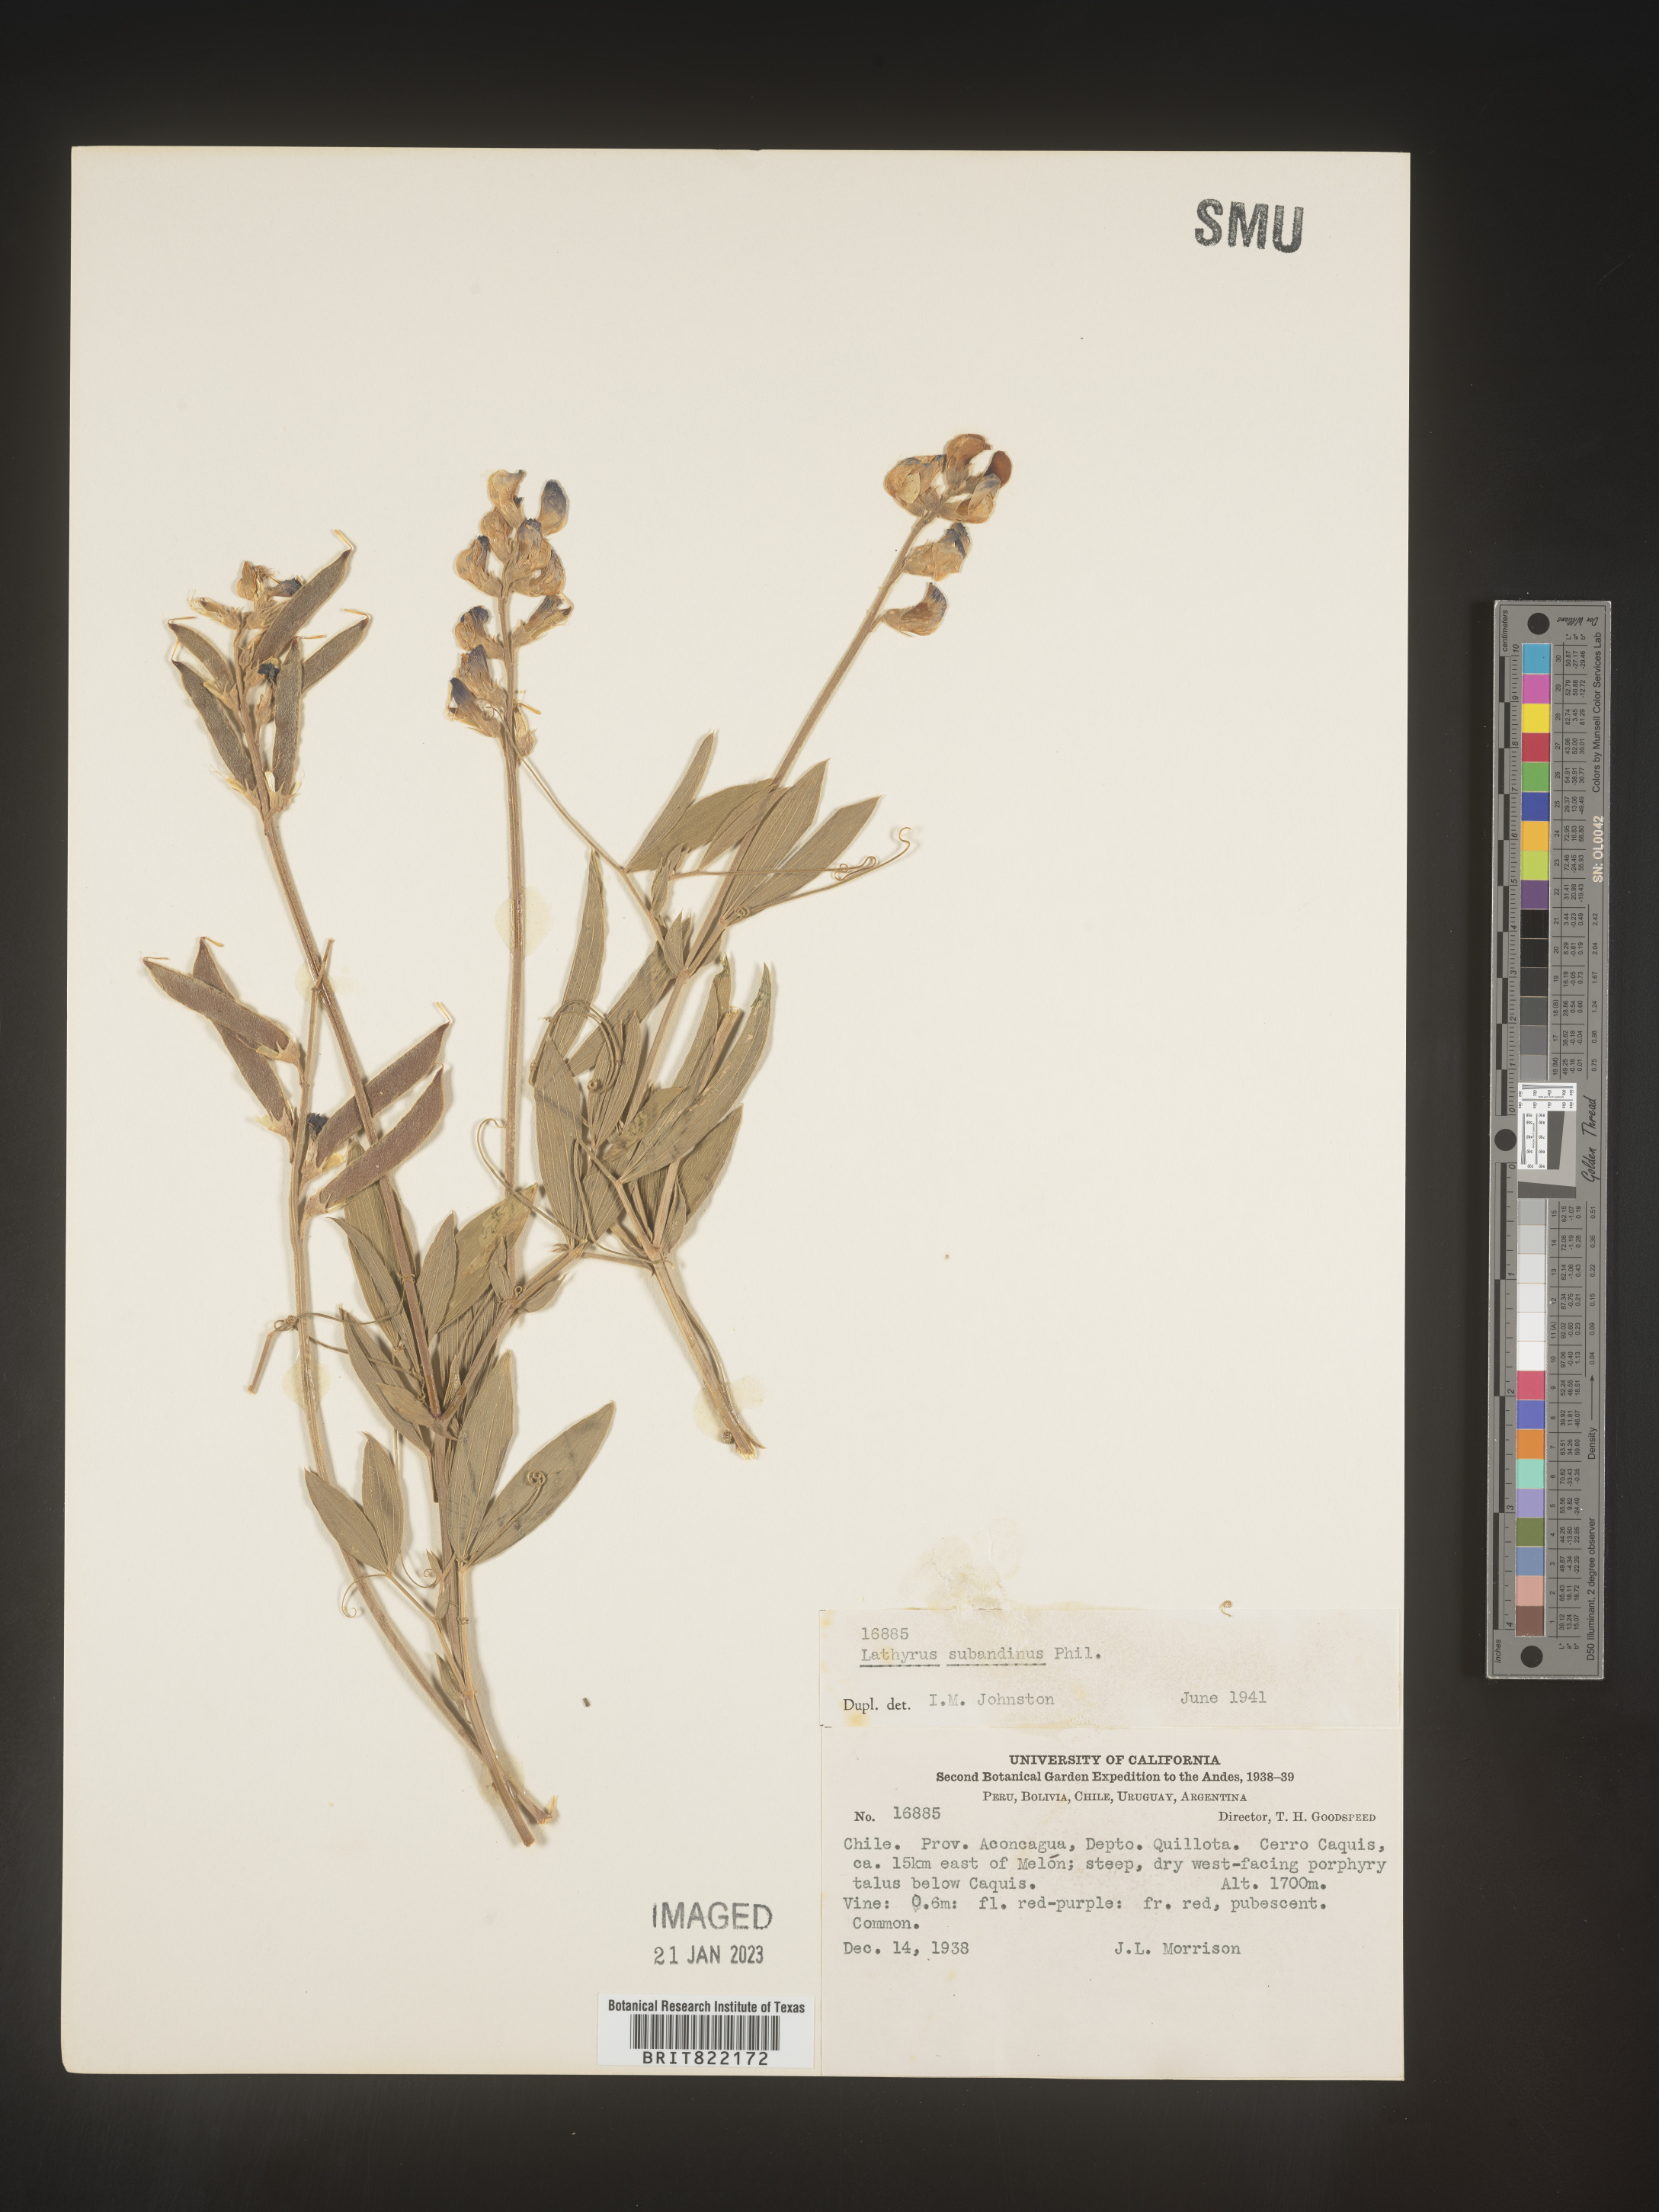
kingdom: Plantae
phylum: Tracheophyta
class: Magnoliopsida
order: Fabales
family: Fabaceae
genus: Lathyrus
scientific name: Lathyrus
